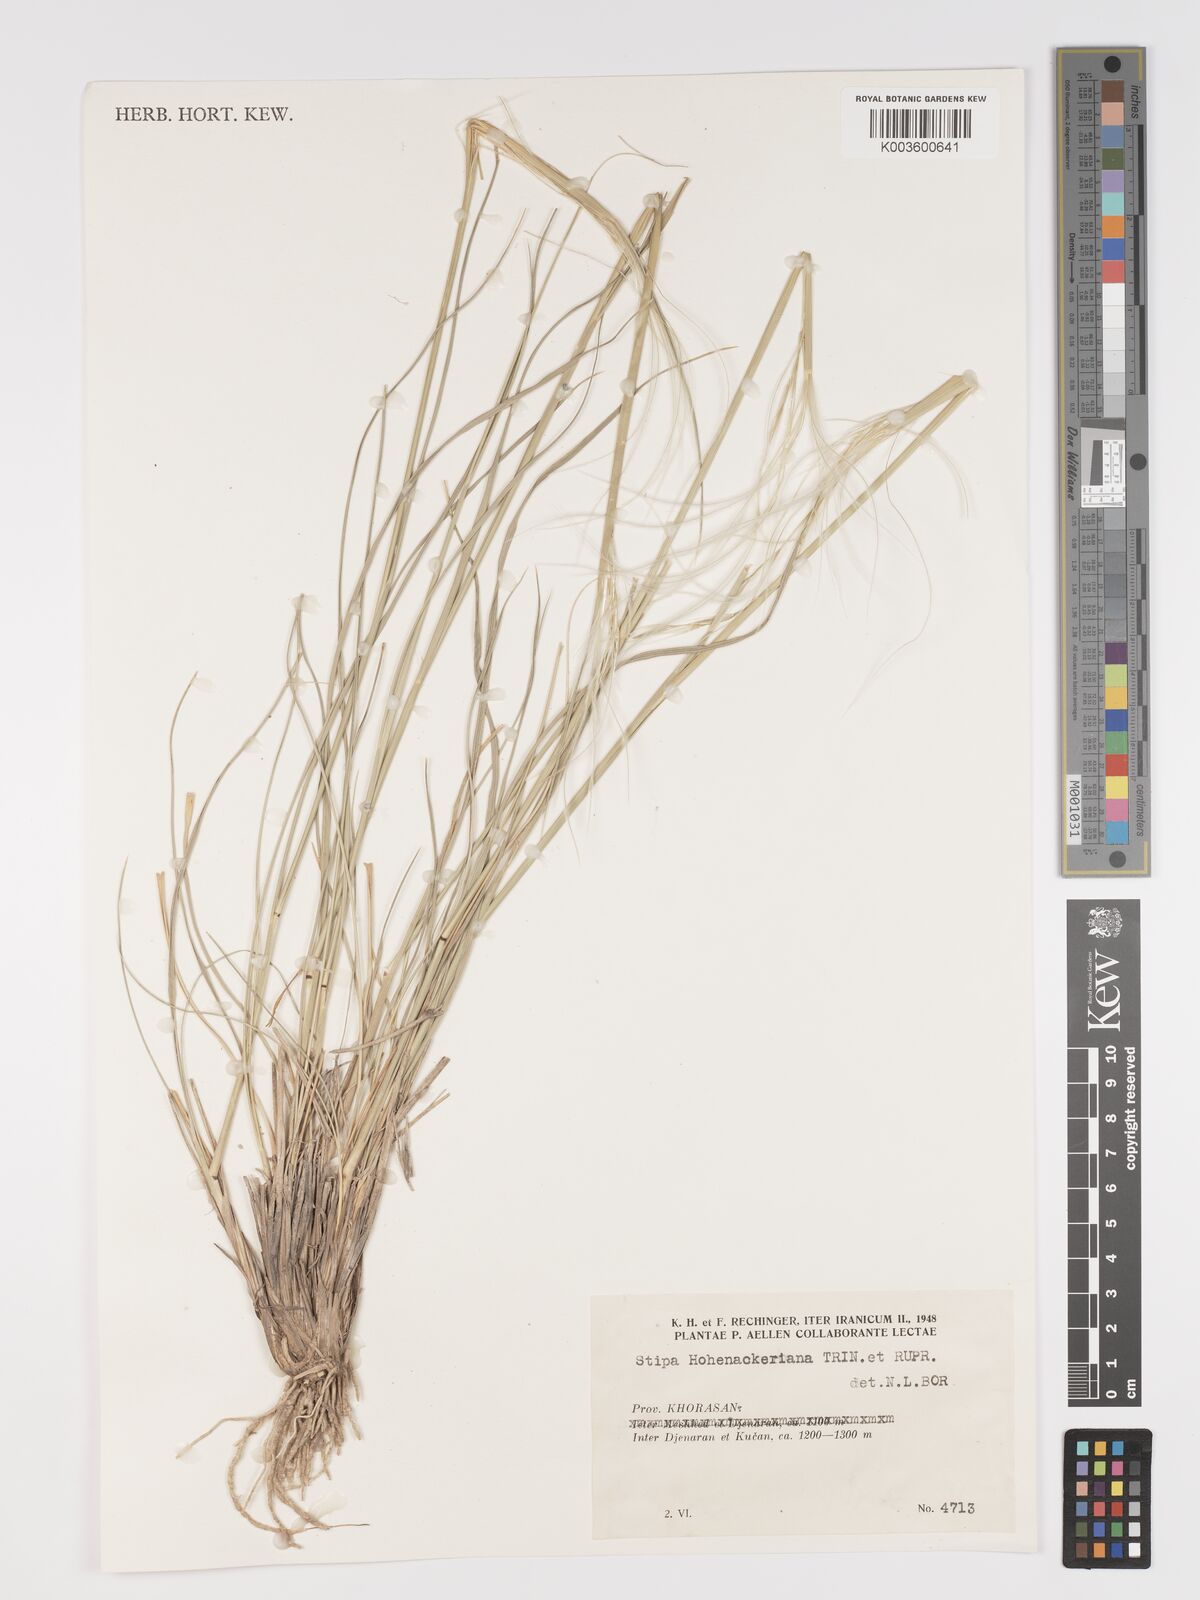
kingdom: Plantae
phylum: Tracheophyta
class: Liliopsida
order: Poales
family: Poaceae
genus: Stipa
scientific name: Stipa hohenackeriana
